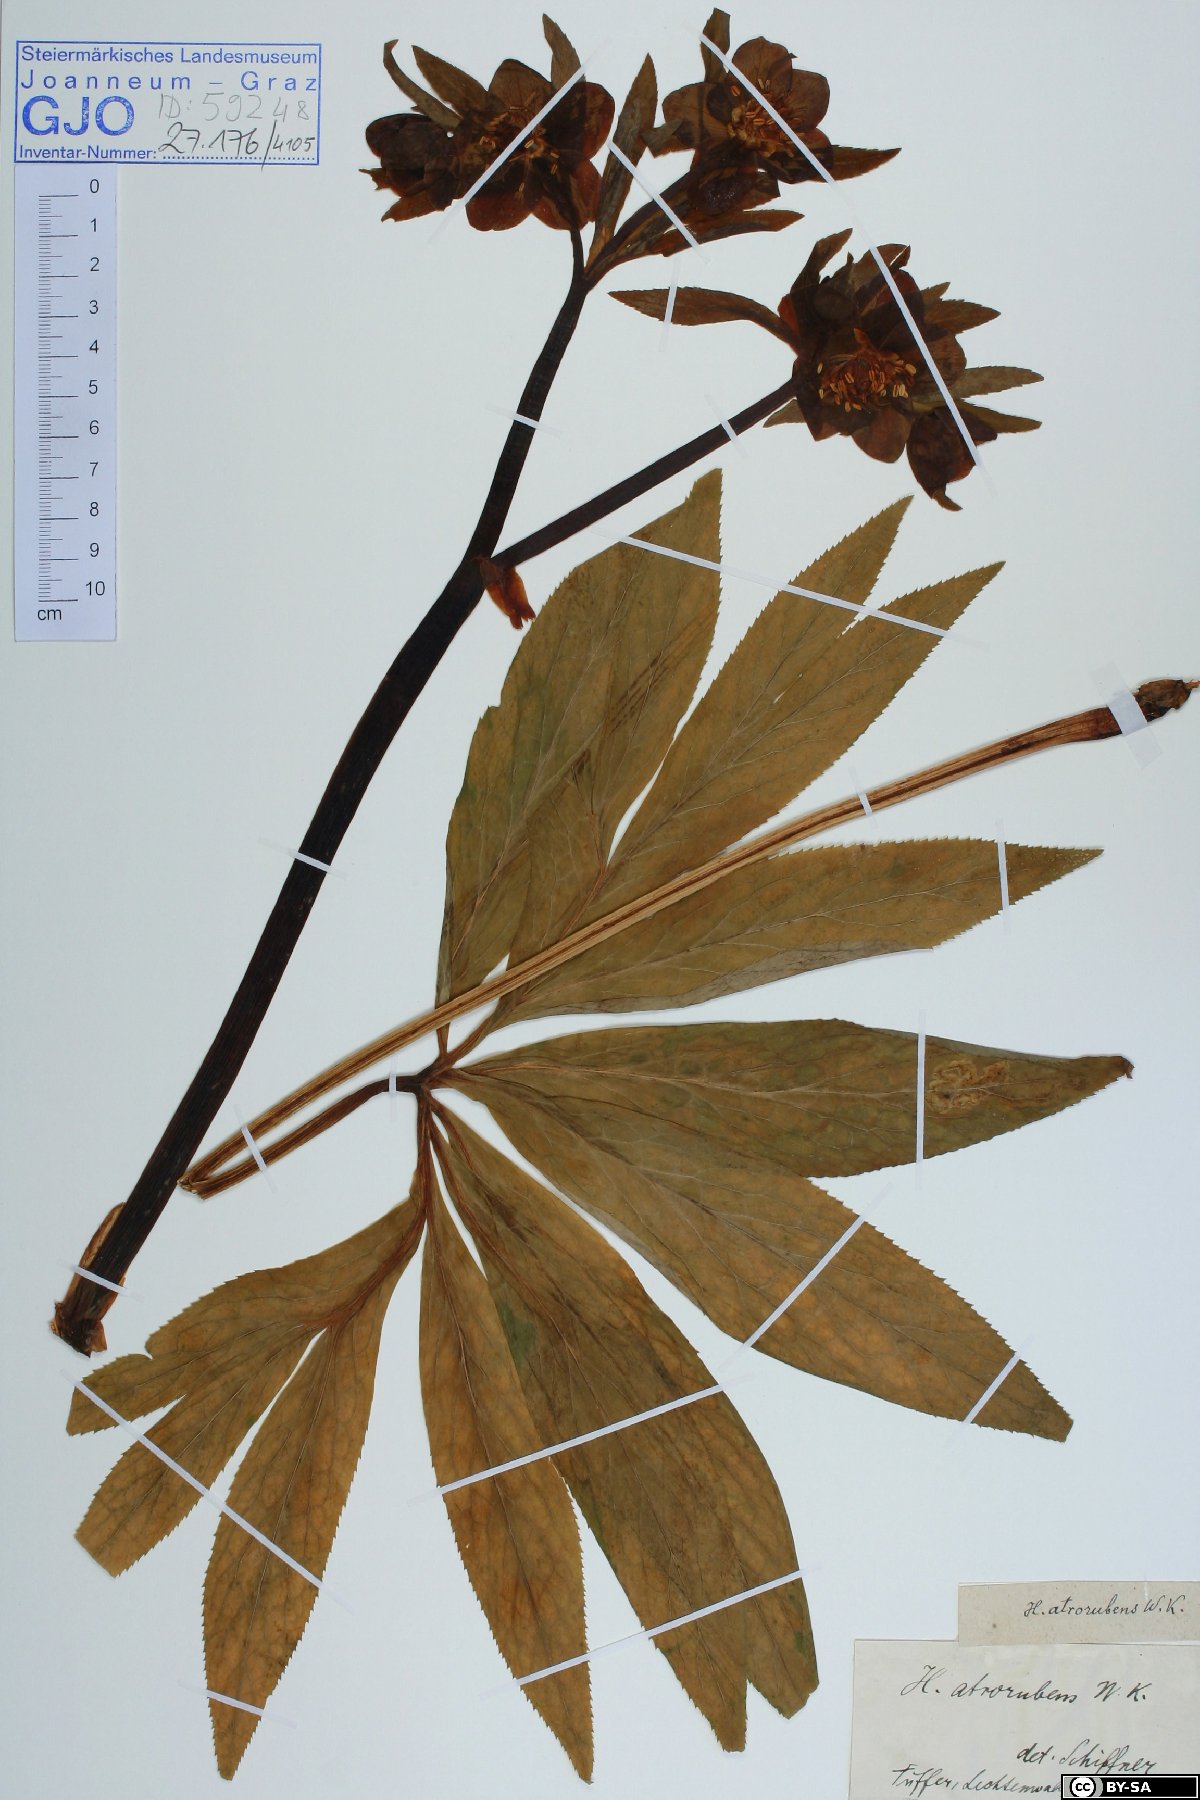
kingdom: Plantae
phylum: Tracheophyta
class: Magnoliopsida
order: Ranunculales
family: Ranunculaceae
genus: Helleborus
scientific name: Helleborus dumetorum
